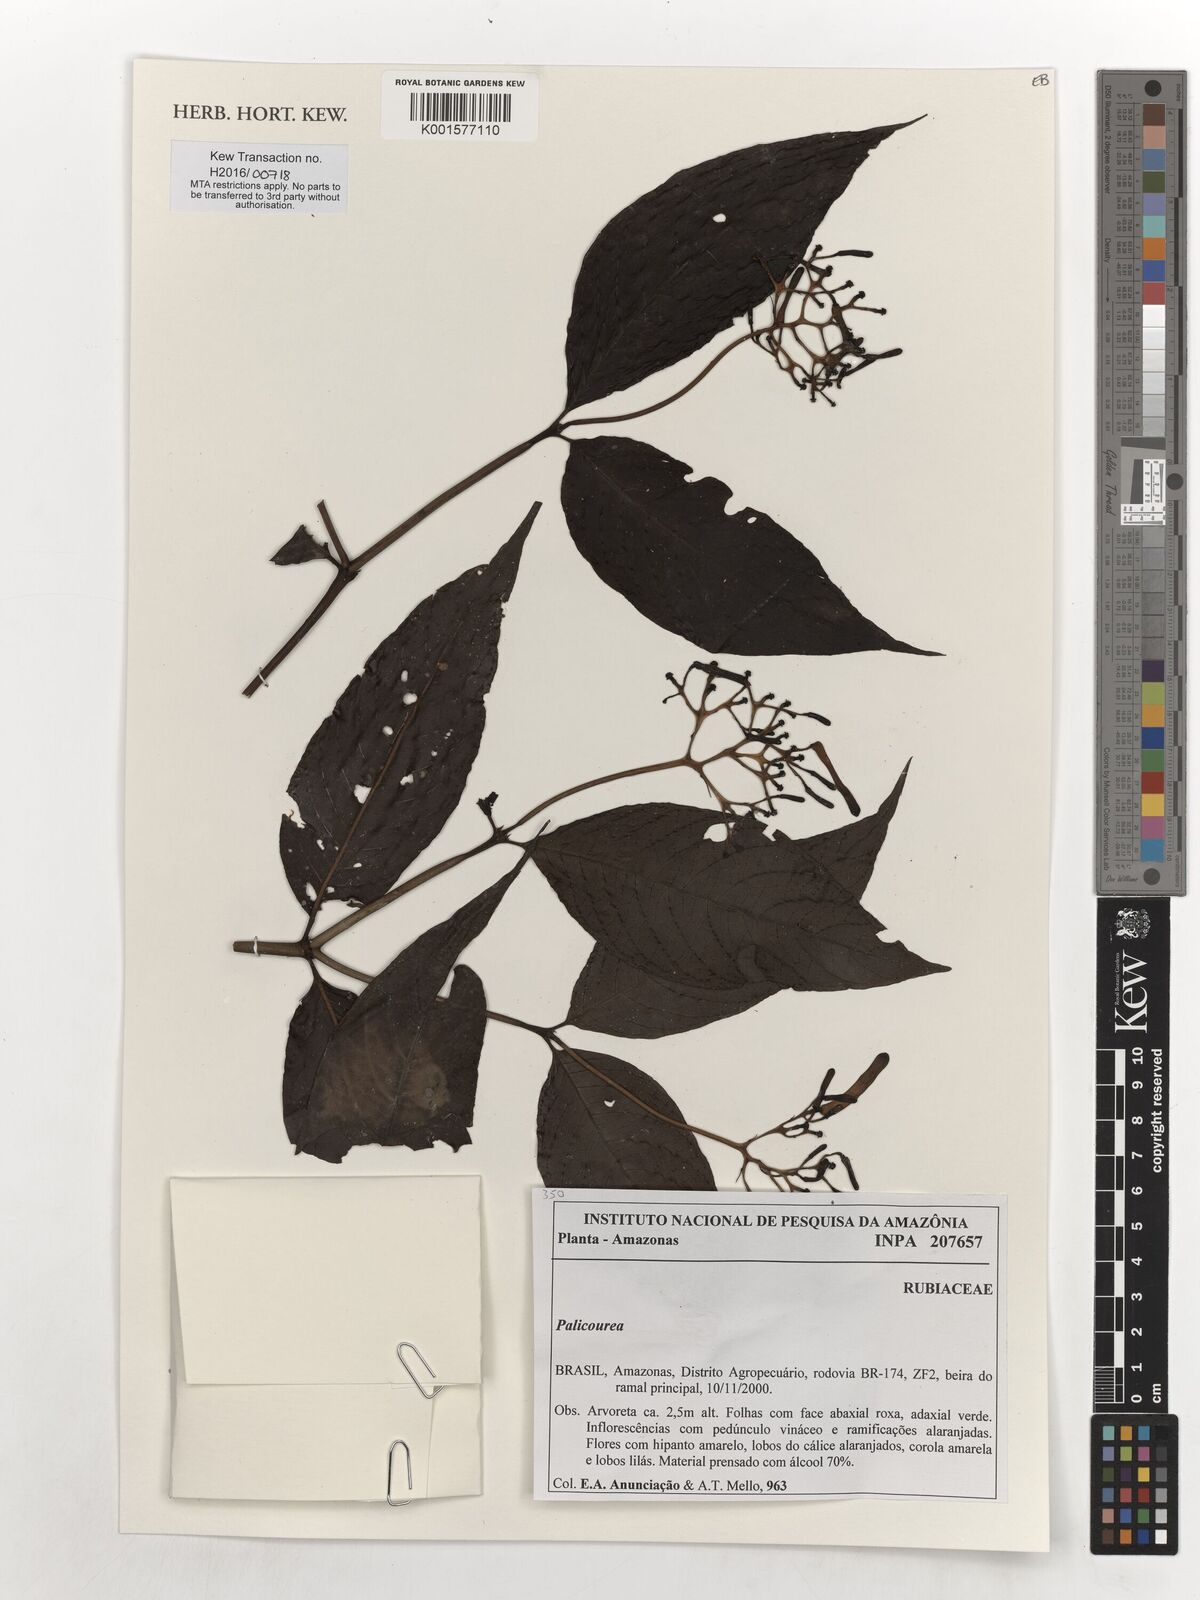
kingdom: Plantae
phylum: Tracheophyta
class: Magnoliopsida
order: Gentianales
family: Rubiaceae
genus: Palicourea
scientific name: Palicourea
